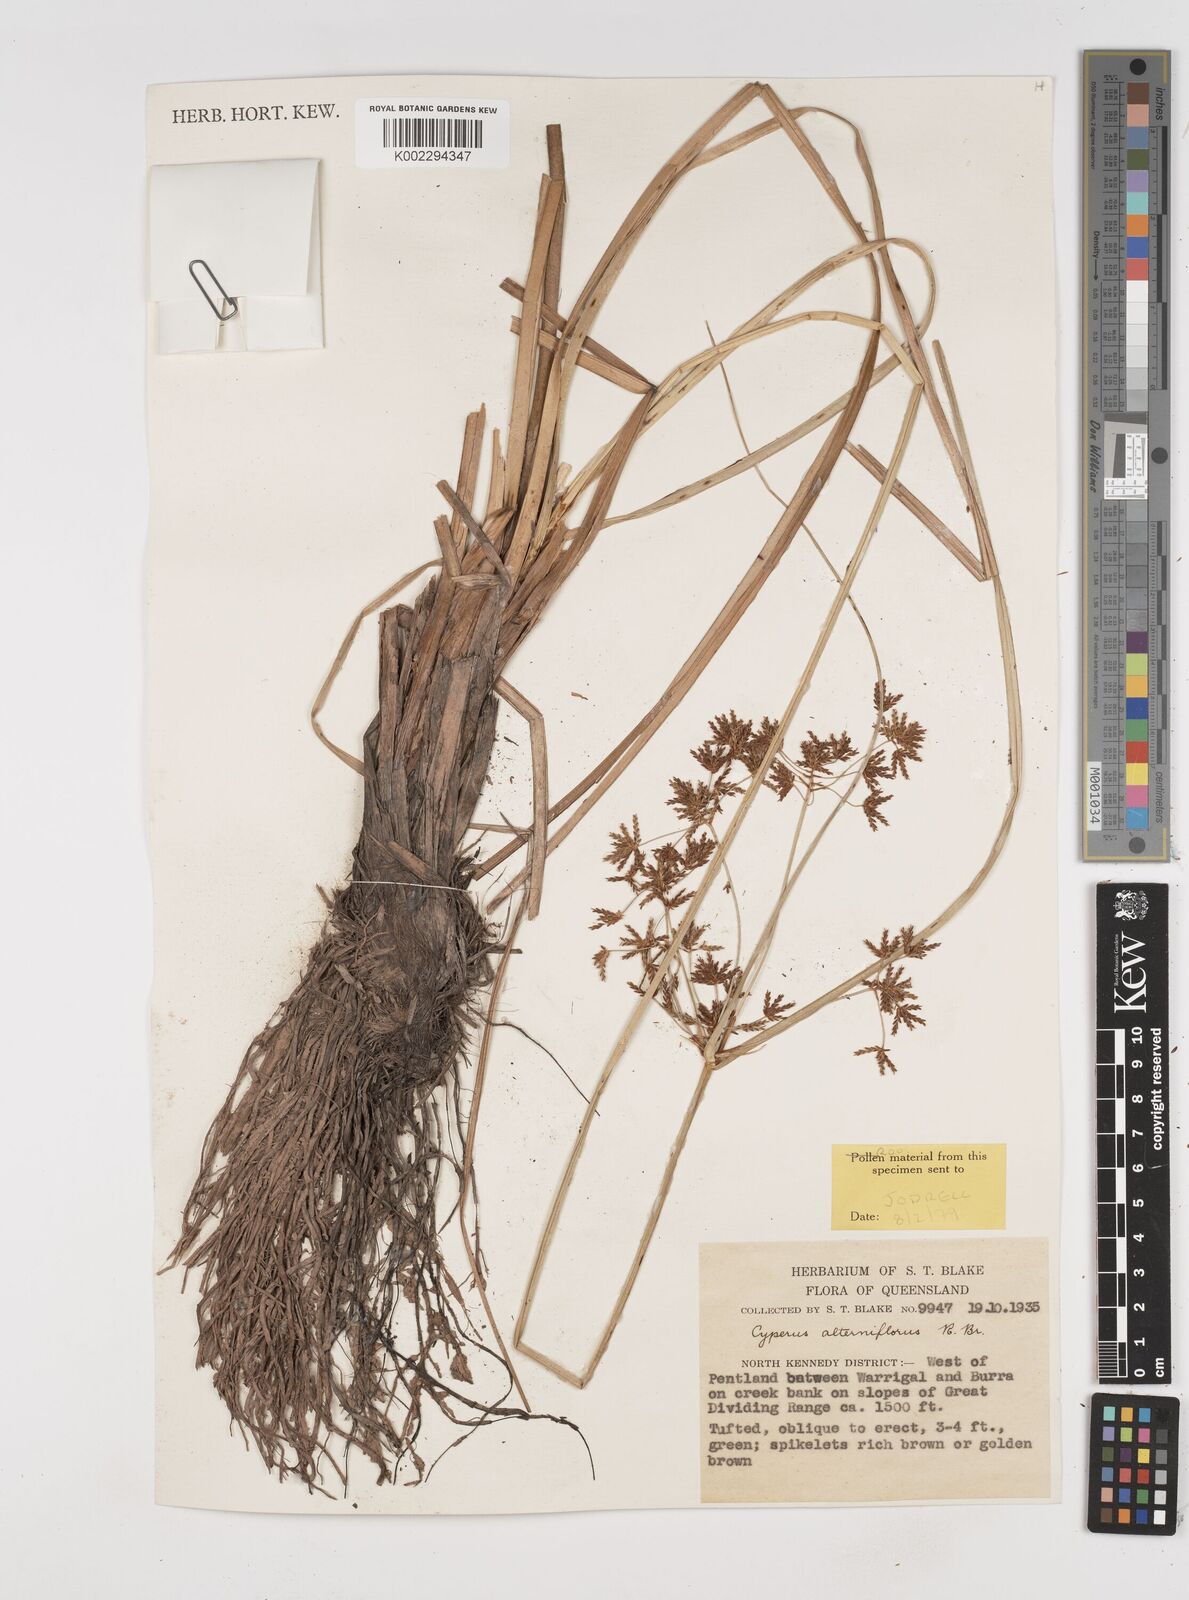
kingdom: Plantae
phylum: Tracheophyta
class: Liliopsida
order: Poales
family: Cyperaceae
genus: Cyperus
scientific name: Cyperus alterniflorus
